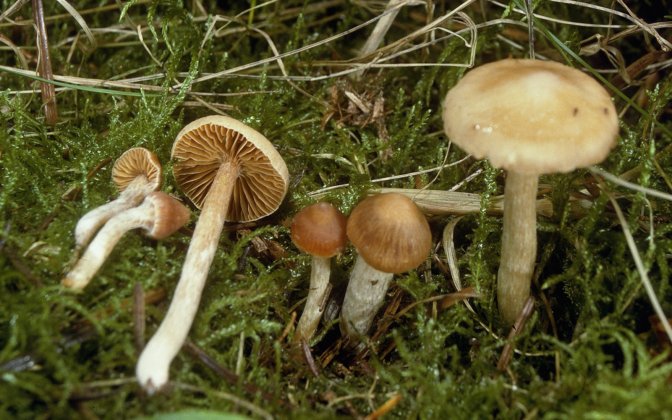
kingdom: Fungi
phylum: Basidiomycota
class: Agaricomycetes
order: Agaricales
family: Cortinariaceae
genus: Cortinarius
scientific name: Cortinarius
